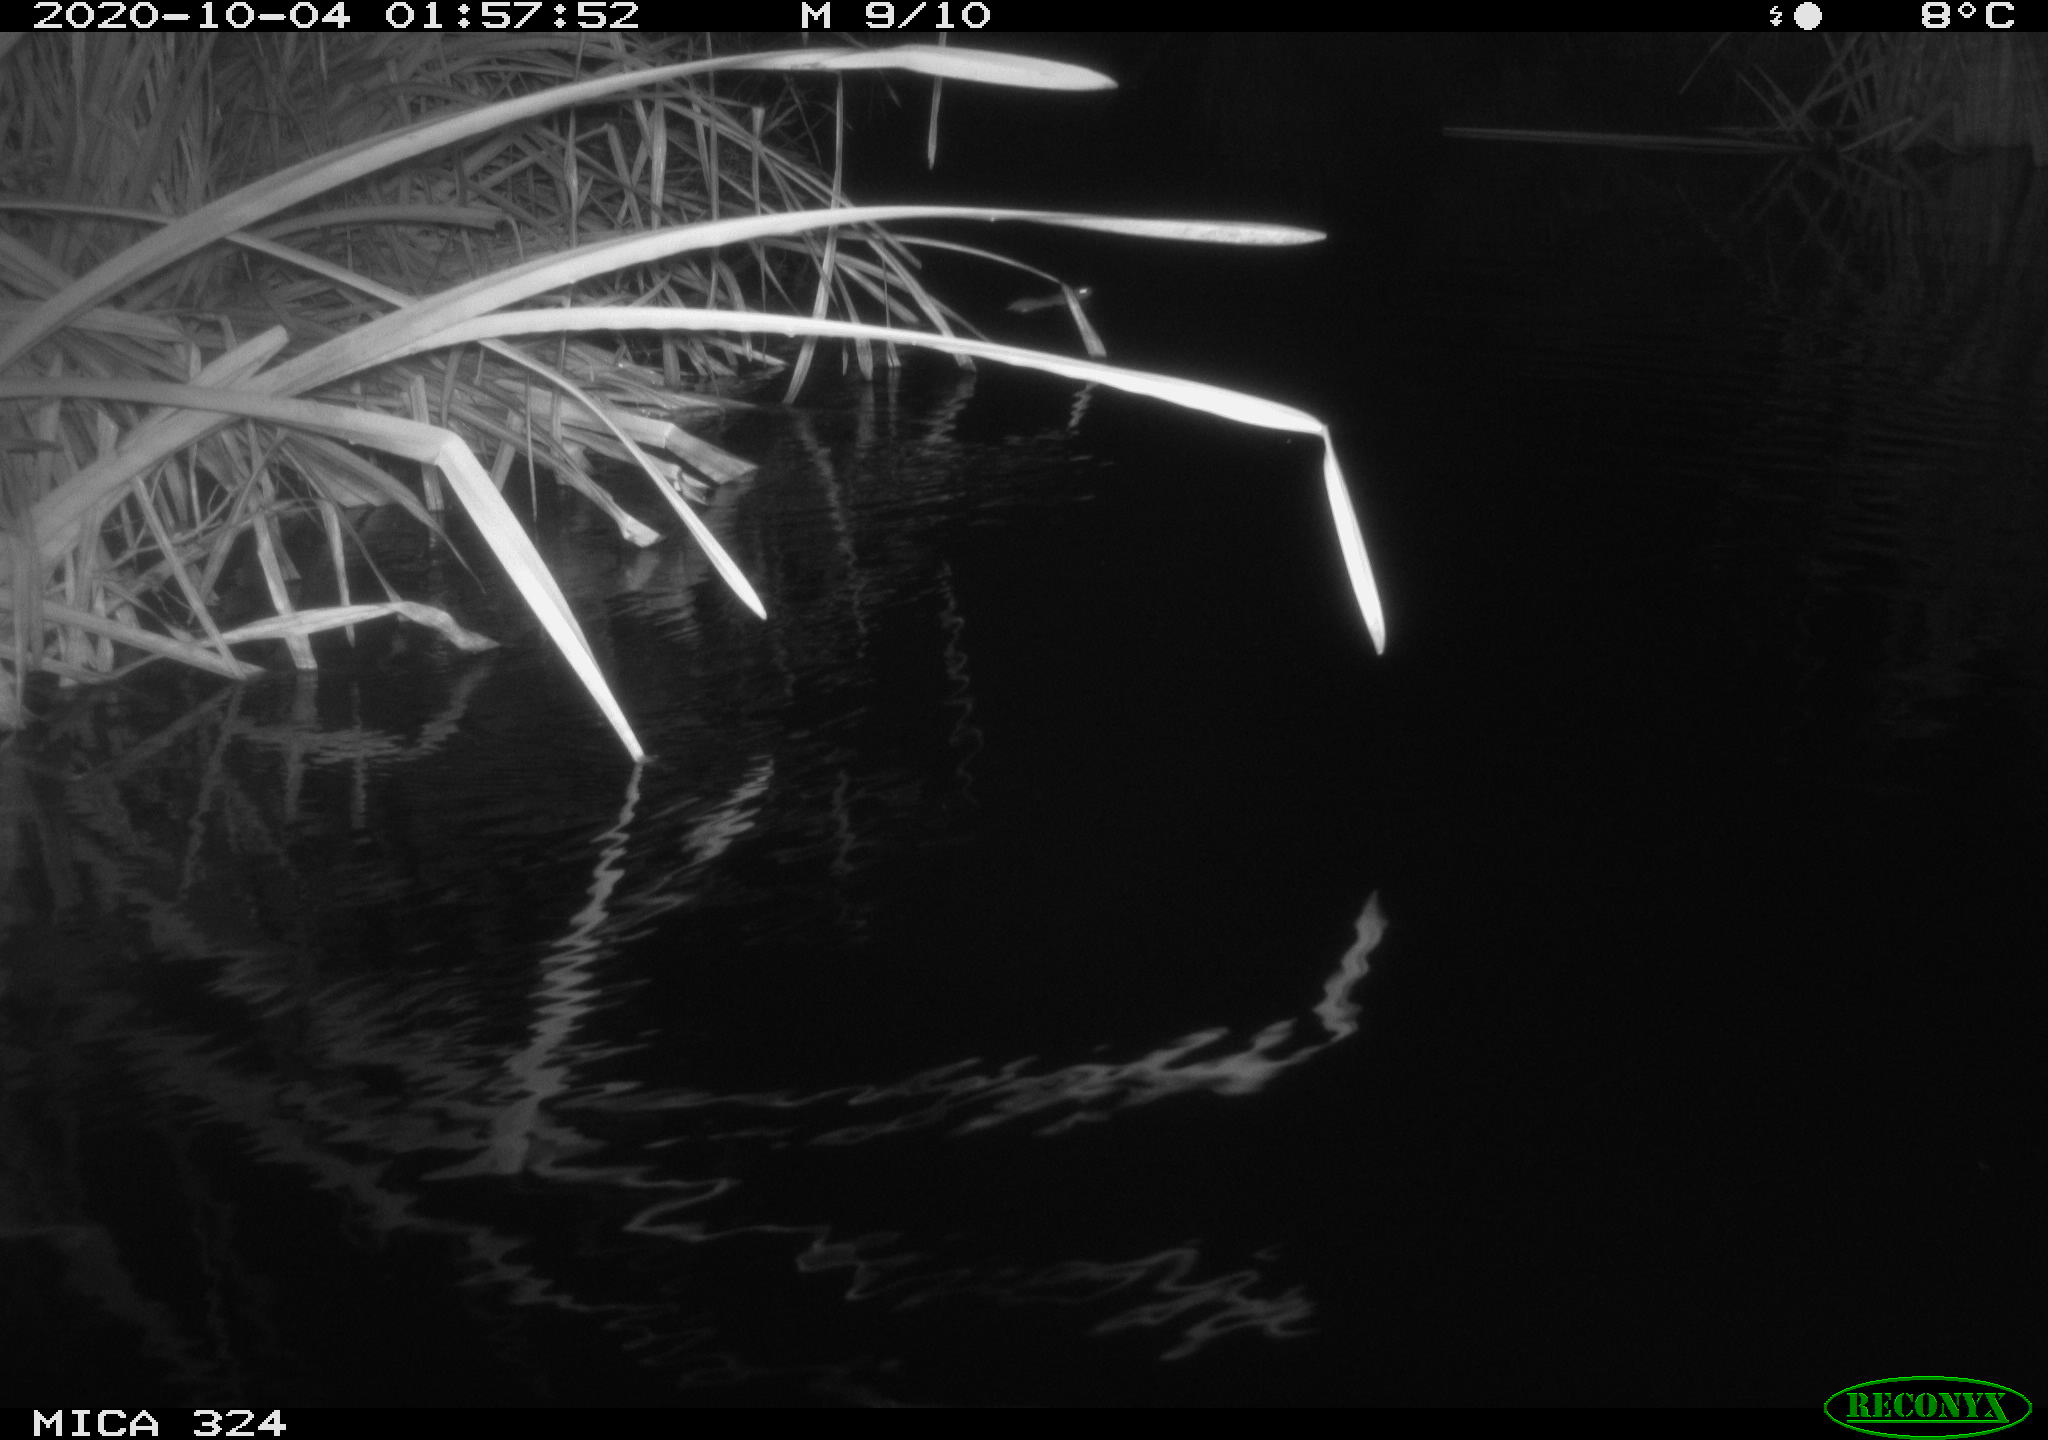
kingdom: Animalia
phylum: Chordata
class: Mammalia
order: Rodentia
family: Muridae
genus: Rattus
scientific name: Rattus norvegicus
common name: Brown rat
